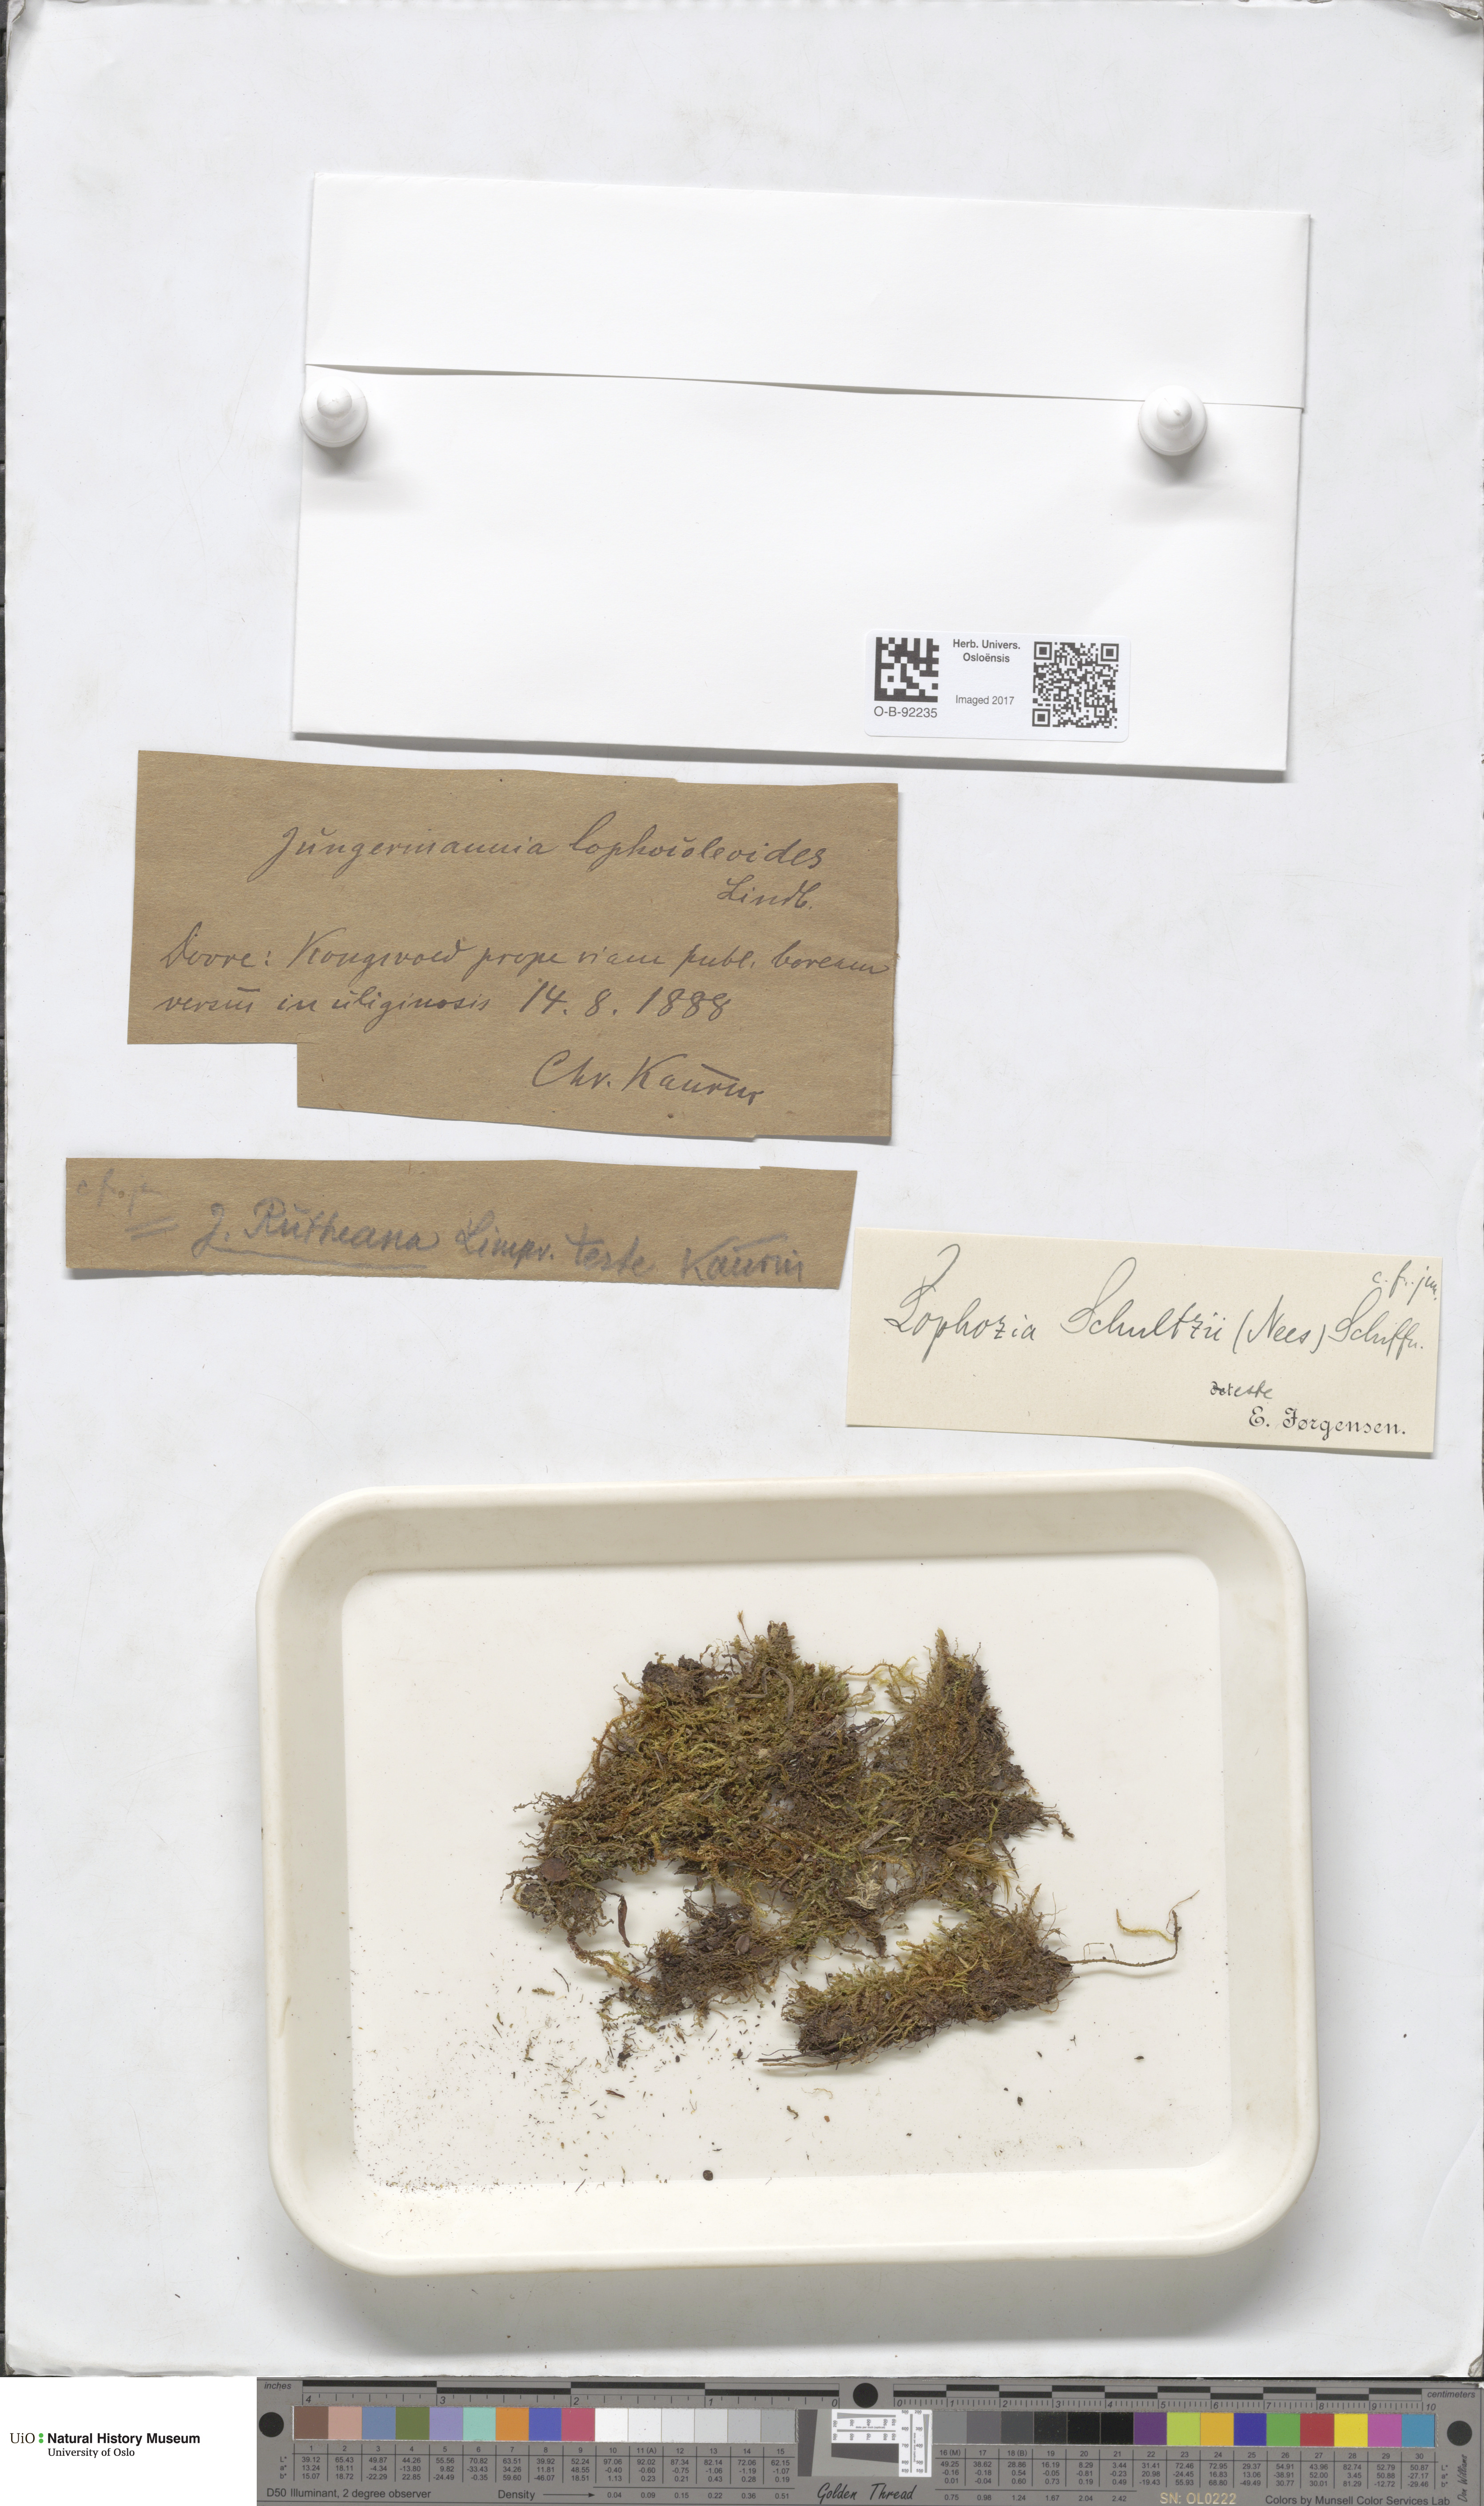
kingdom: Plantae
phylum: Marchantiophyta
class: Jungermanniopsida
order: Jungermanniales
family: Jungermanniaceae
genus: Mesoptychia
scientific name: Mesoptychia rutheana
